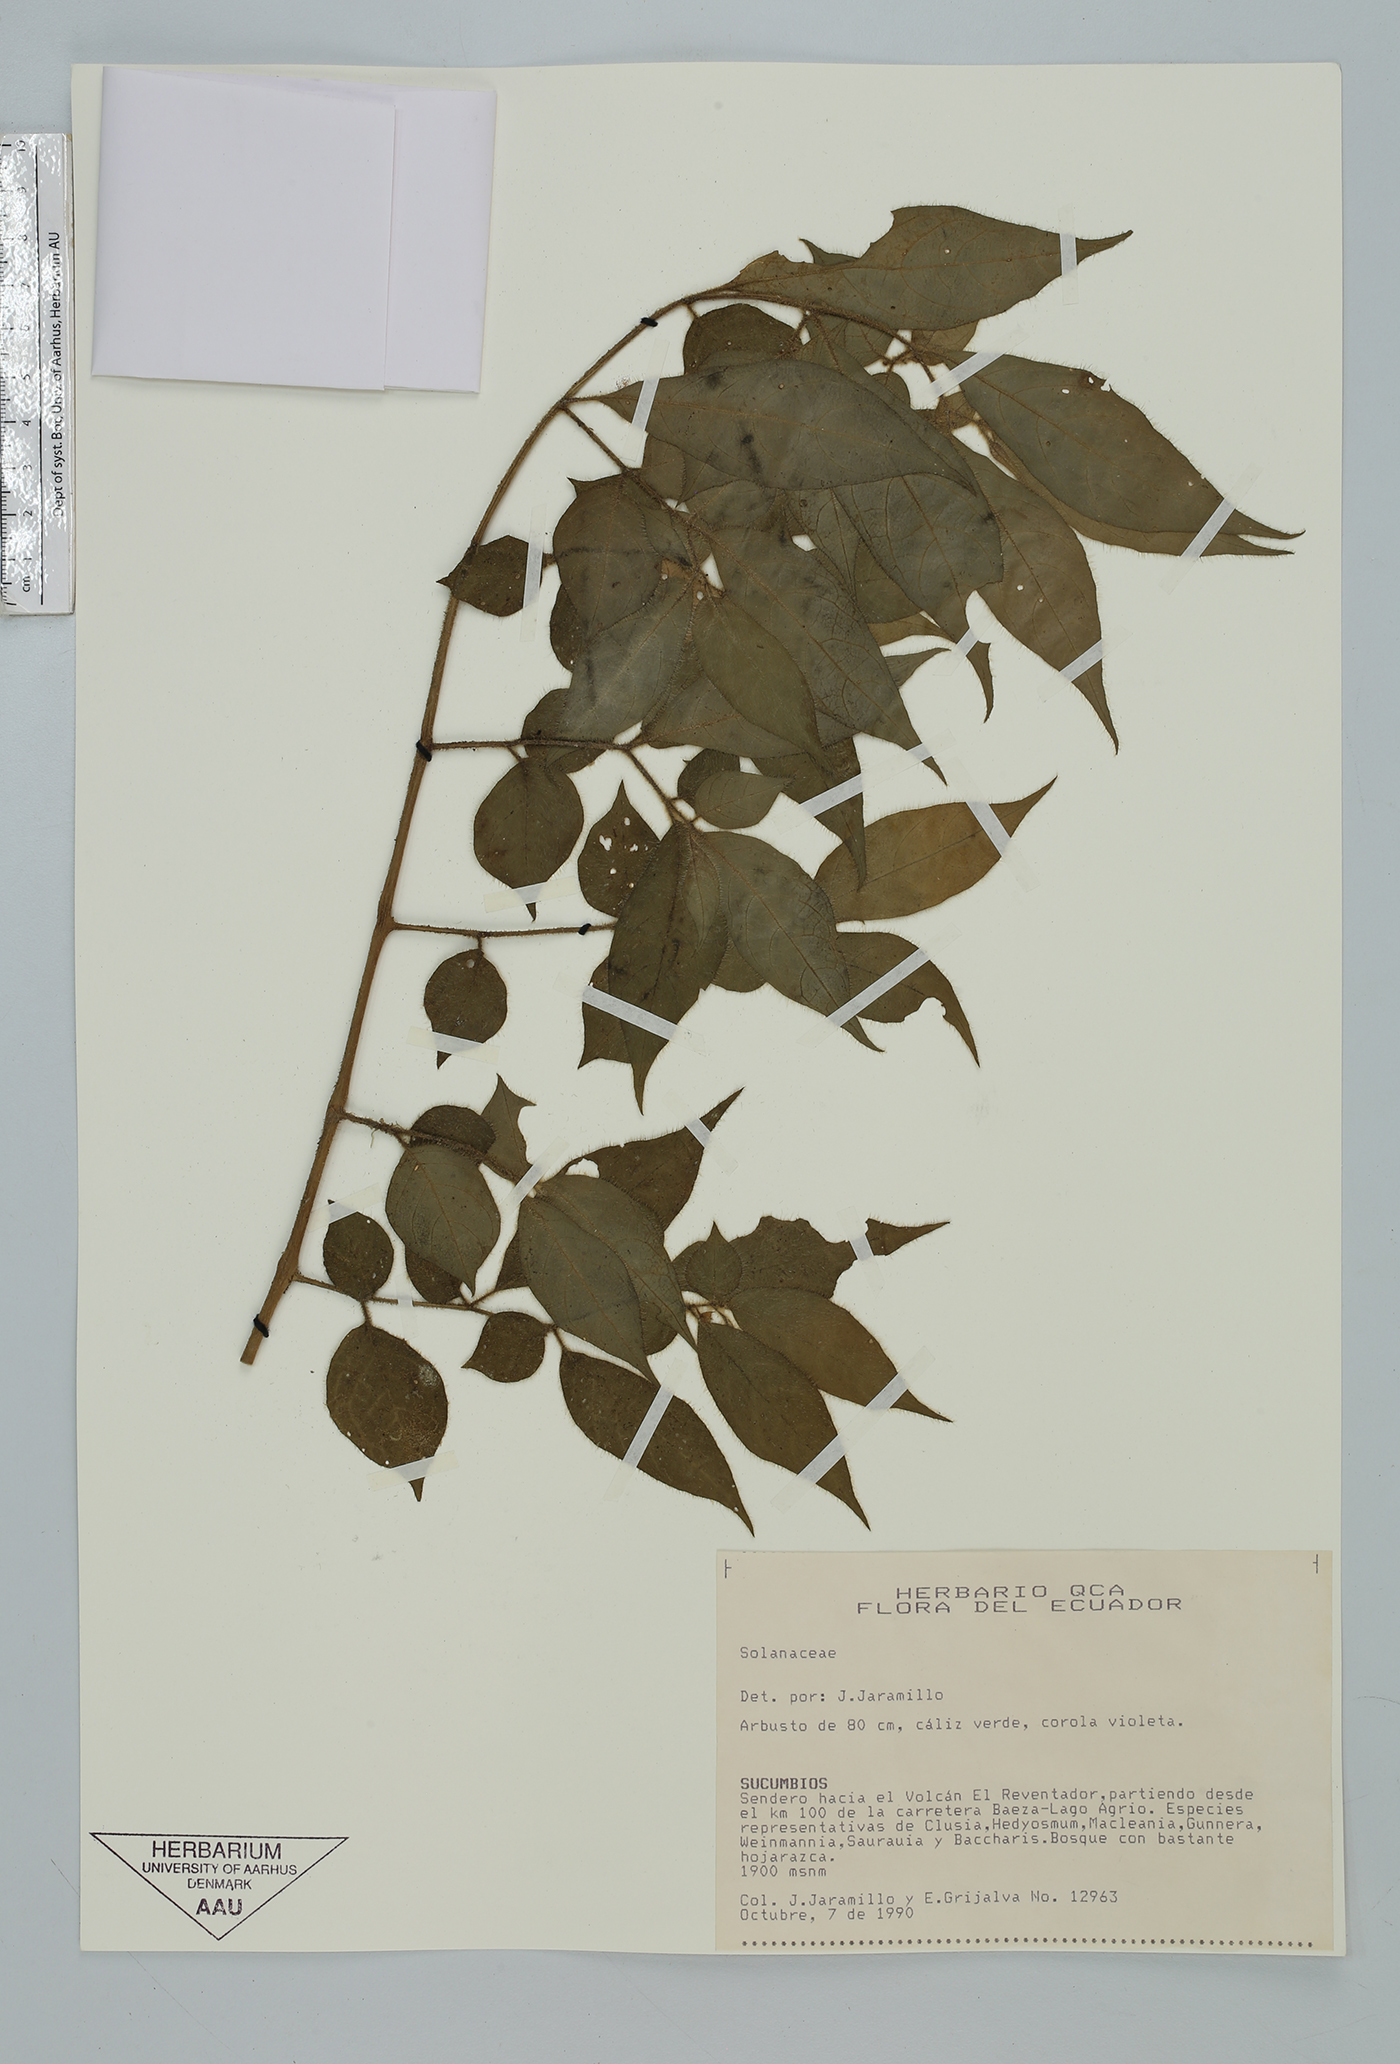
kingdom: Plantae
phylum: Tracheophyta
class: Magnoliopsida
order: Solanales
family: Solanaceae
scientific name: Solanaceae
